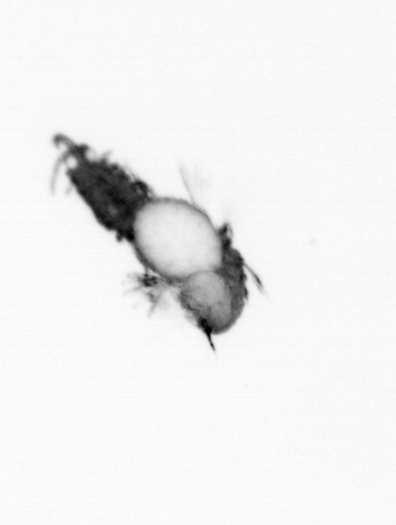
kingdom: Animalia
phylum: Annelida
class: Polychaeta
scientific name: Polychaeta
